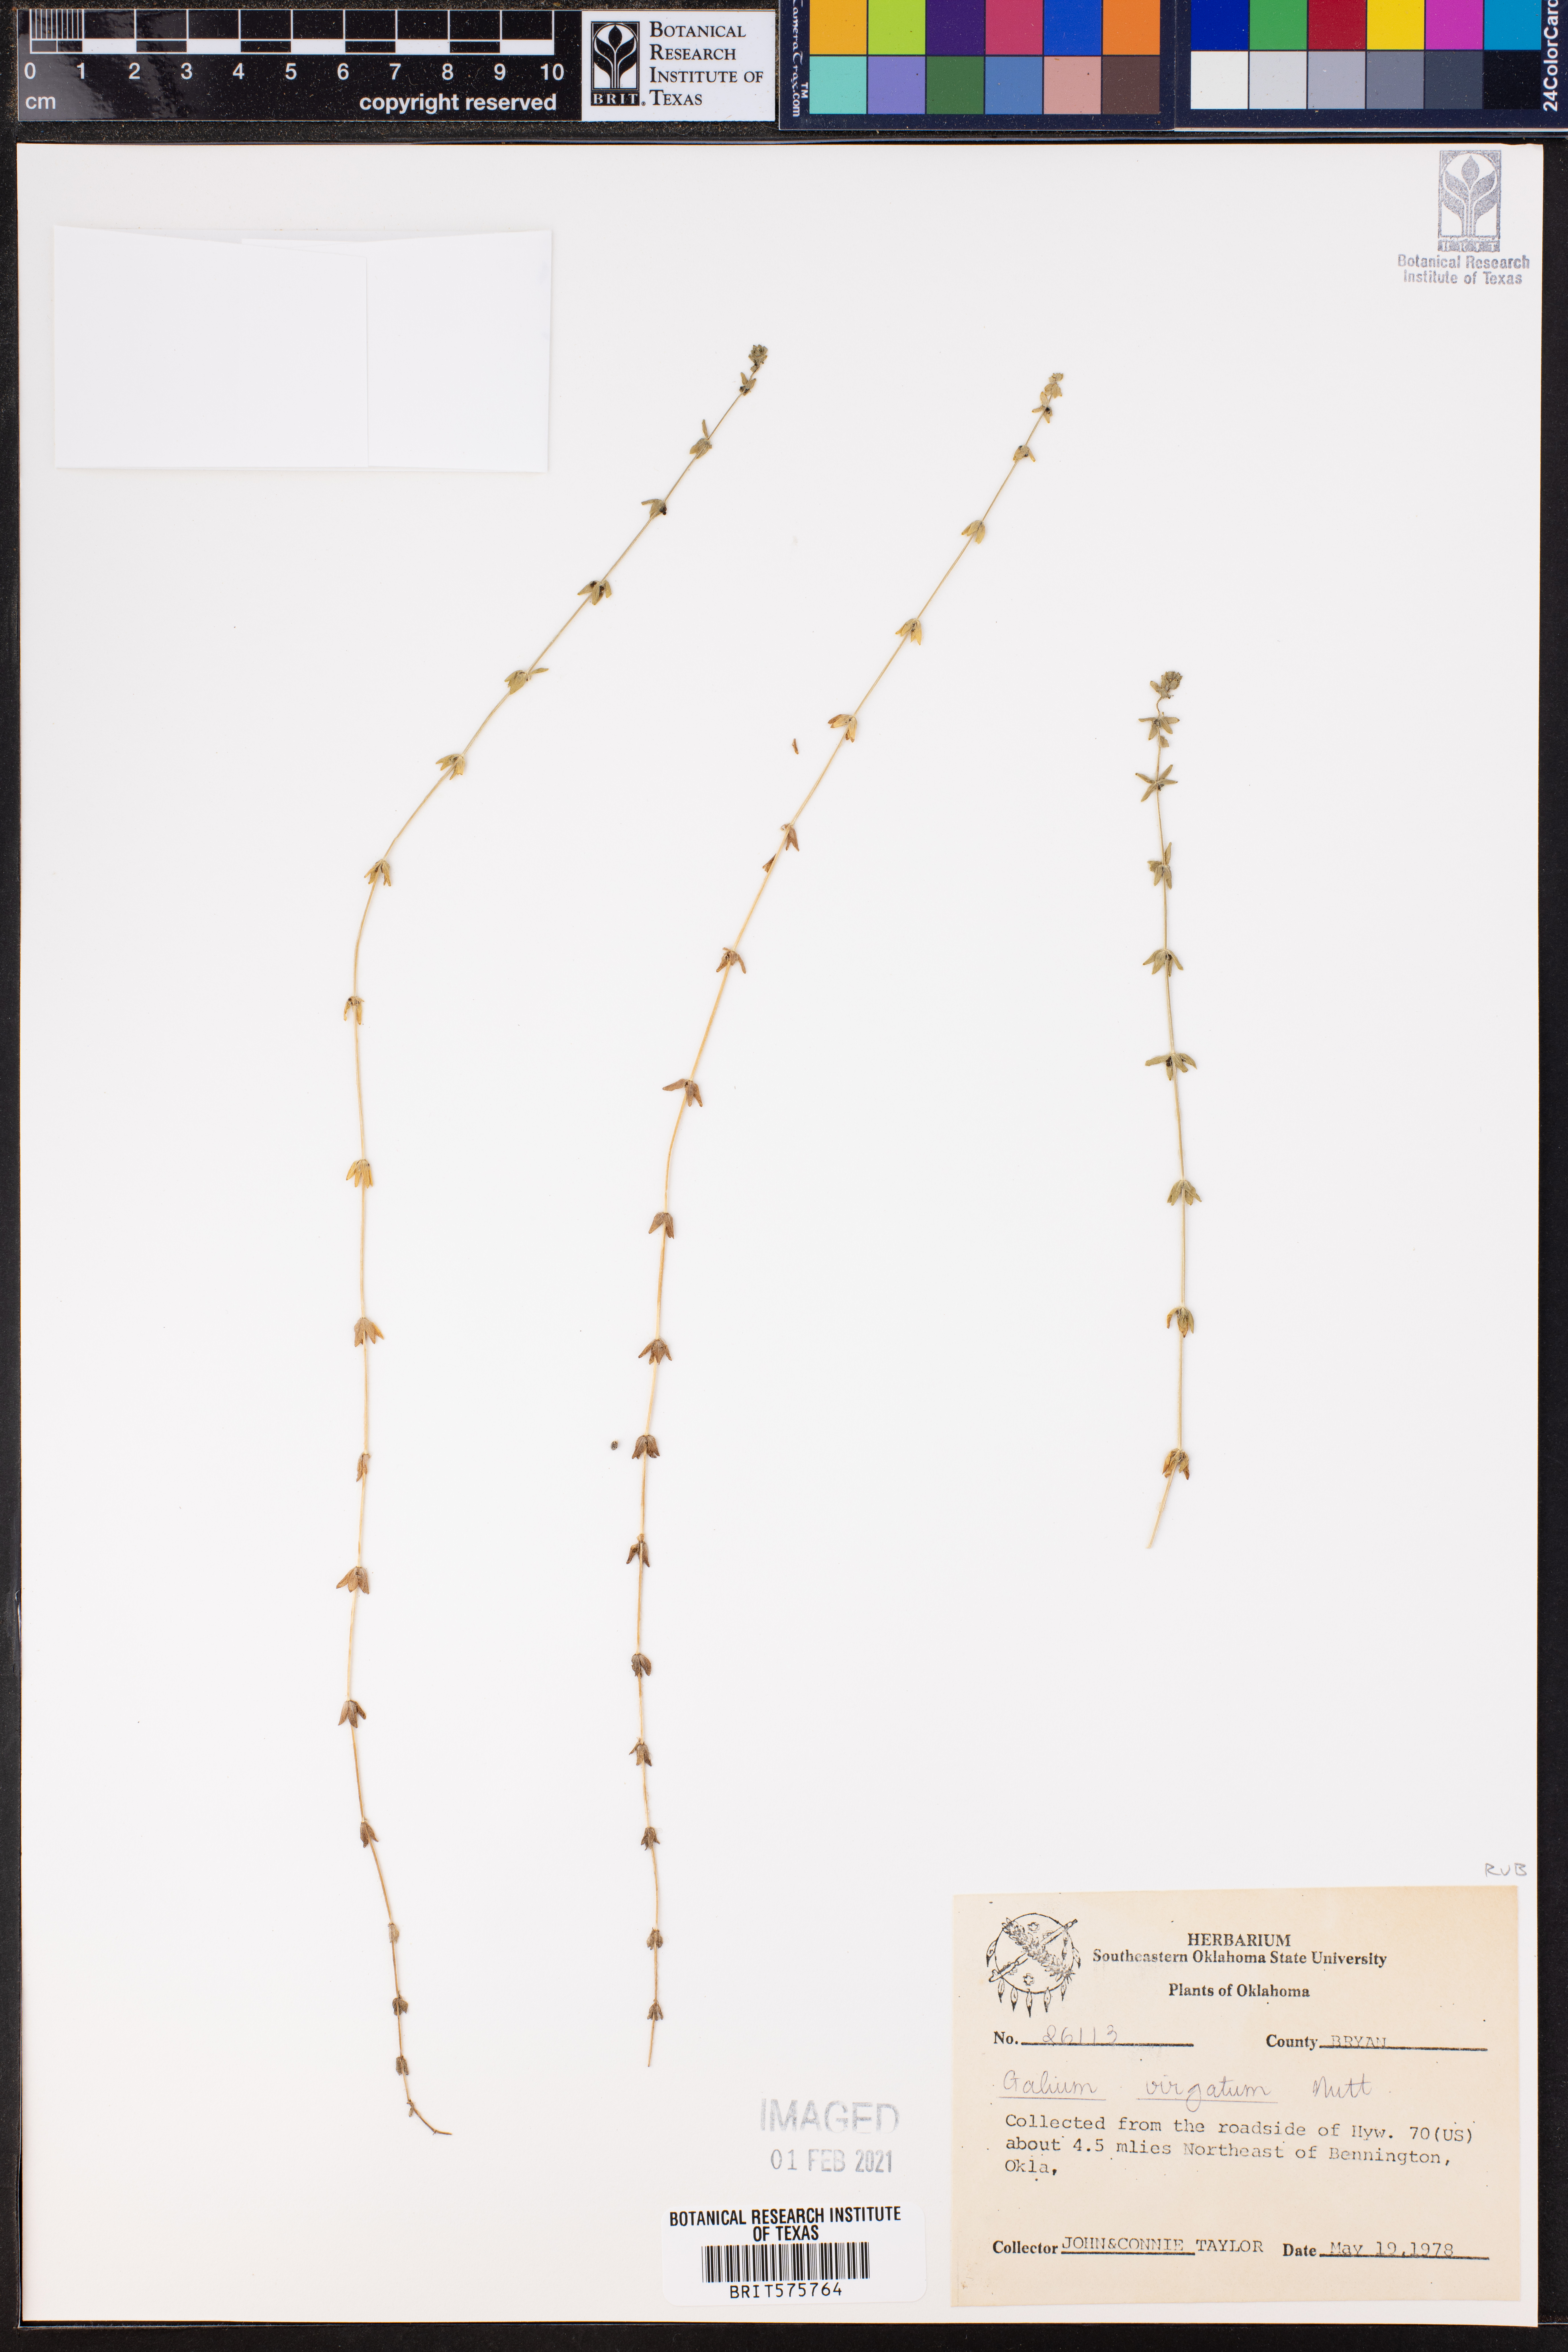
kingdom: Plantae
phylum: Tracheophyta
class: Magnoliopsida
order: Gentianales
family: Rubiaceae
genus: Galium
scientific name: Galium virgatum
